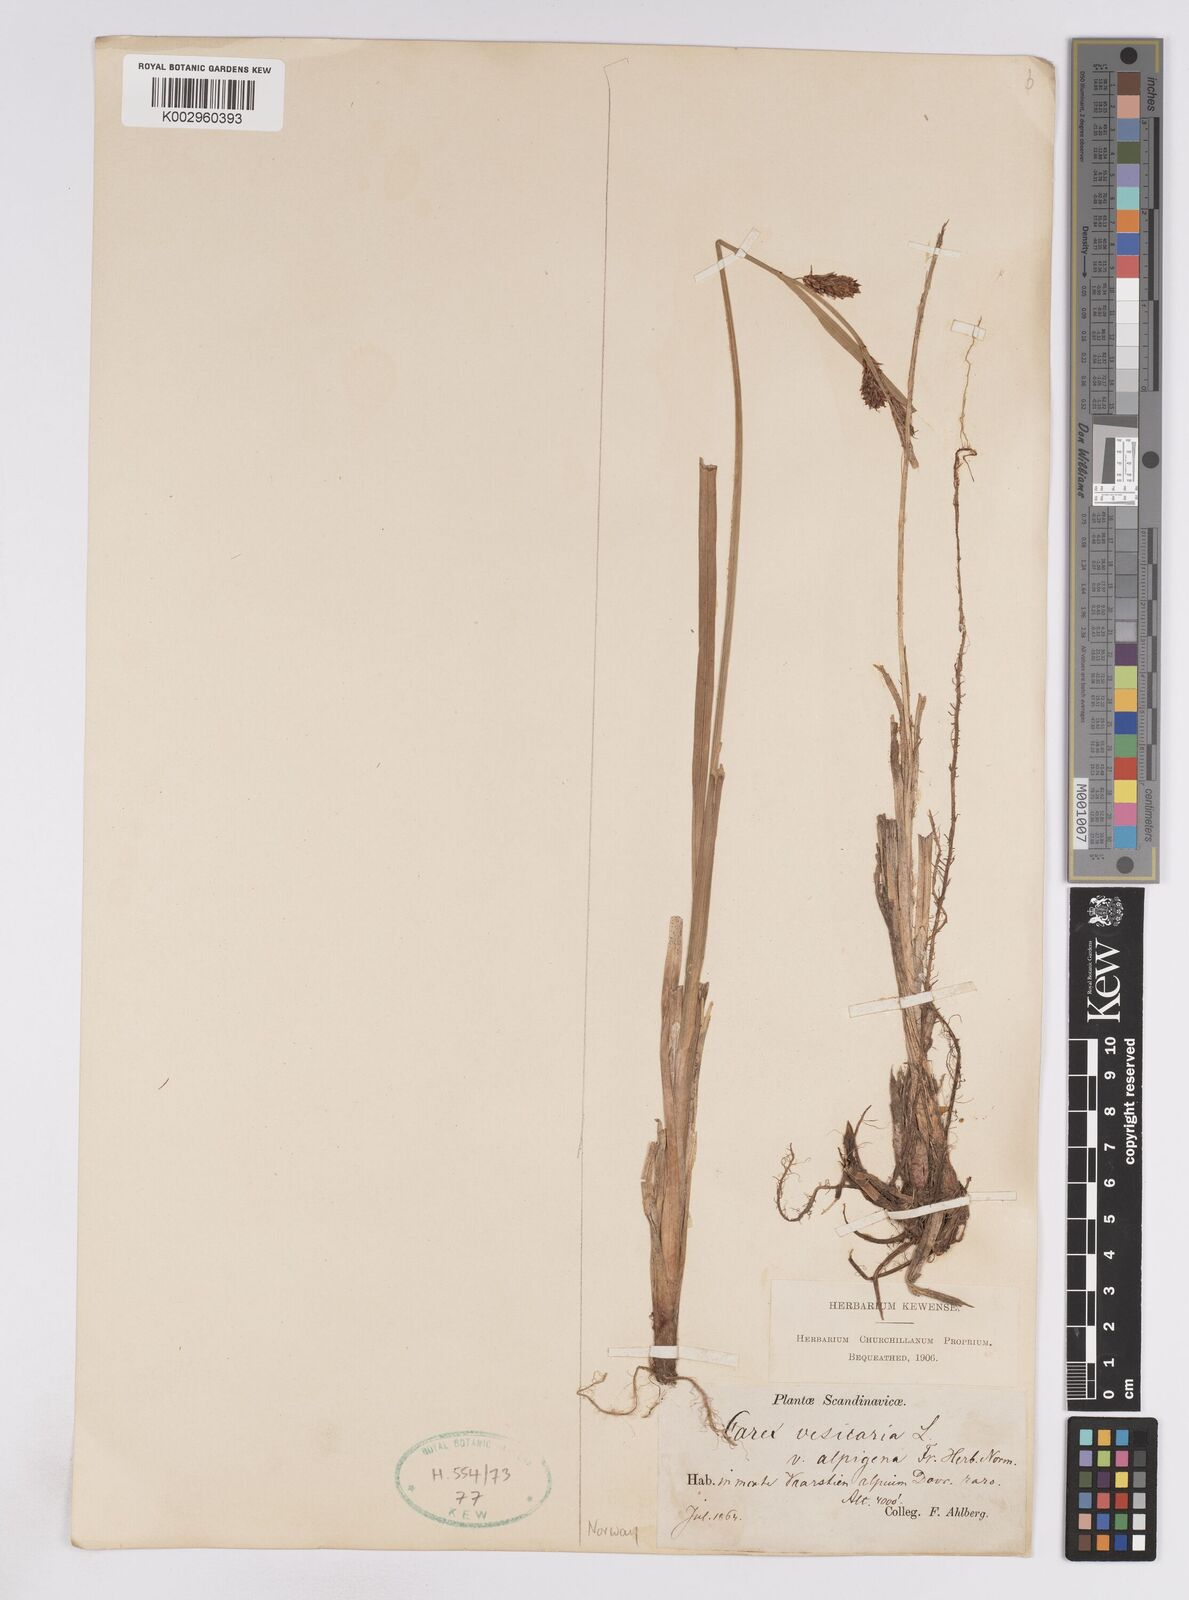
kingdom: Plantae
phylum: Tracheophyta
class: Liliopsida
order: Poales
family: Cyperaceae
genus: Carex
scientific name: Carex rostrata
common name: Bottle sedge
